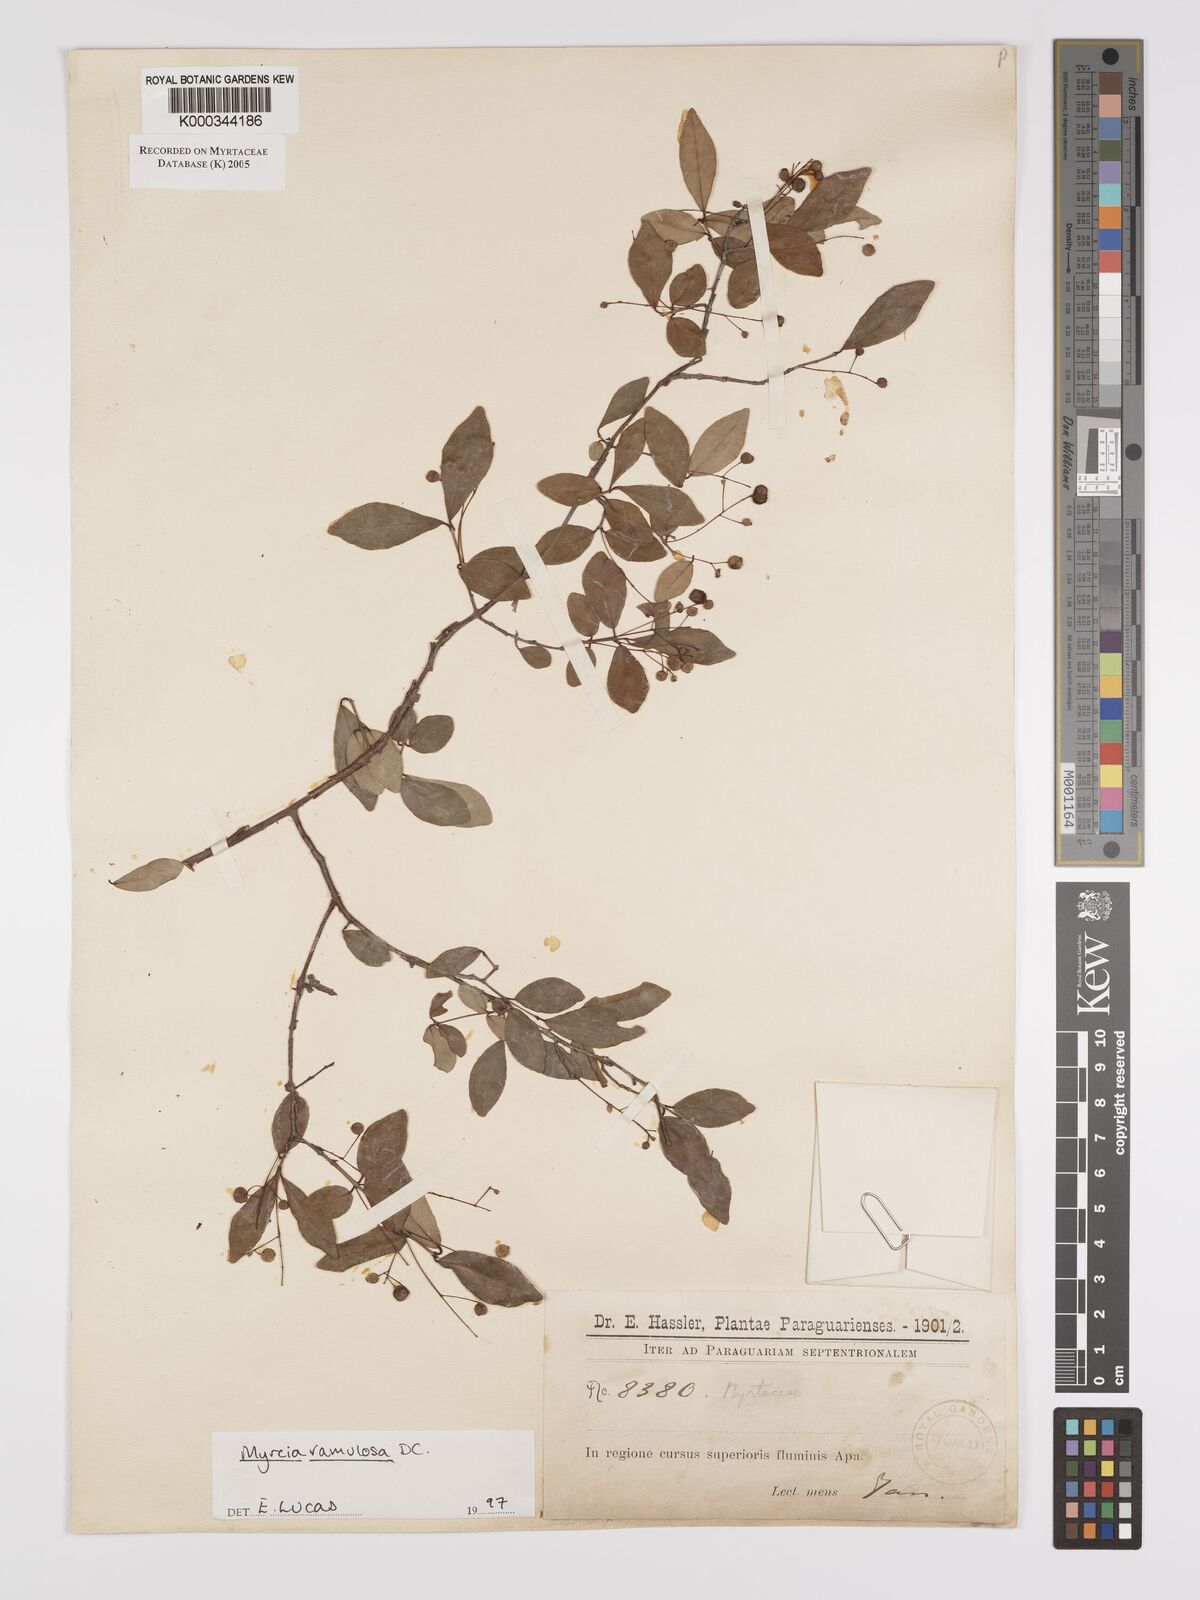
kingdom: Plantae
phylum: Tracheophyta
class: Magnoliopsida
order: Myrtales
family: Myrtaceae
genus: Myrcia
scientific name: Myrcia selloi
